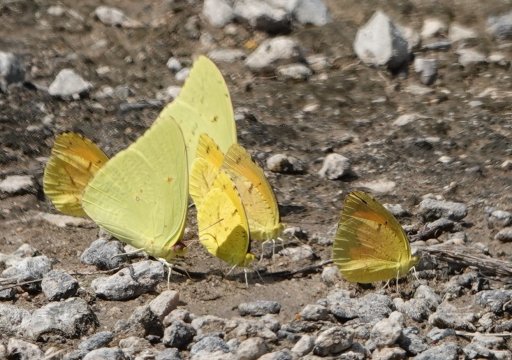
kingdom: Animalia
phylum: Arthropoda
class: Insecta
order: Lepidoptera
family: Pieridae
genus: Abaeis
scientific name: Abaeis nicippe
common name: Sleepy Orange
